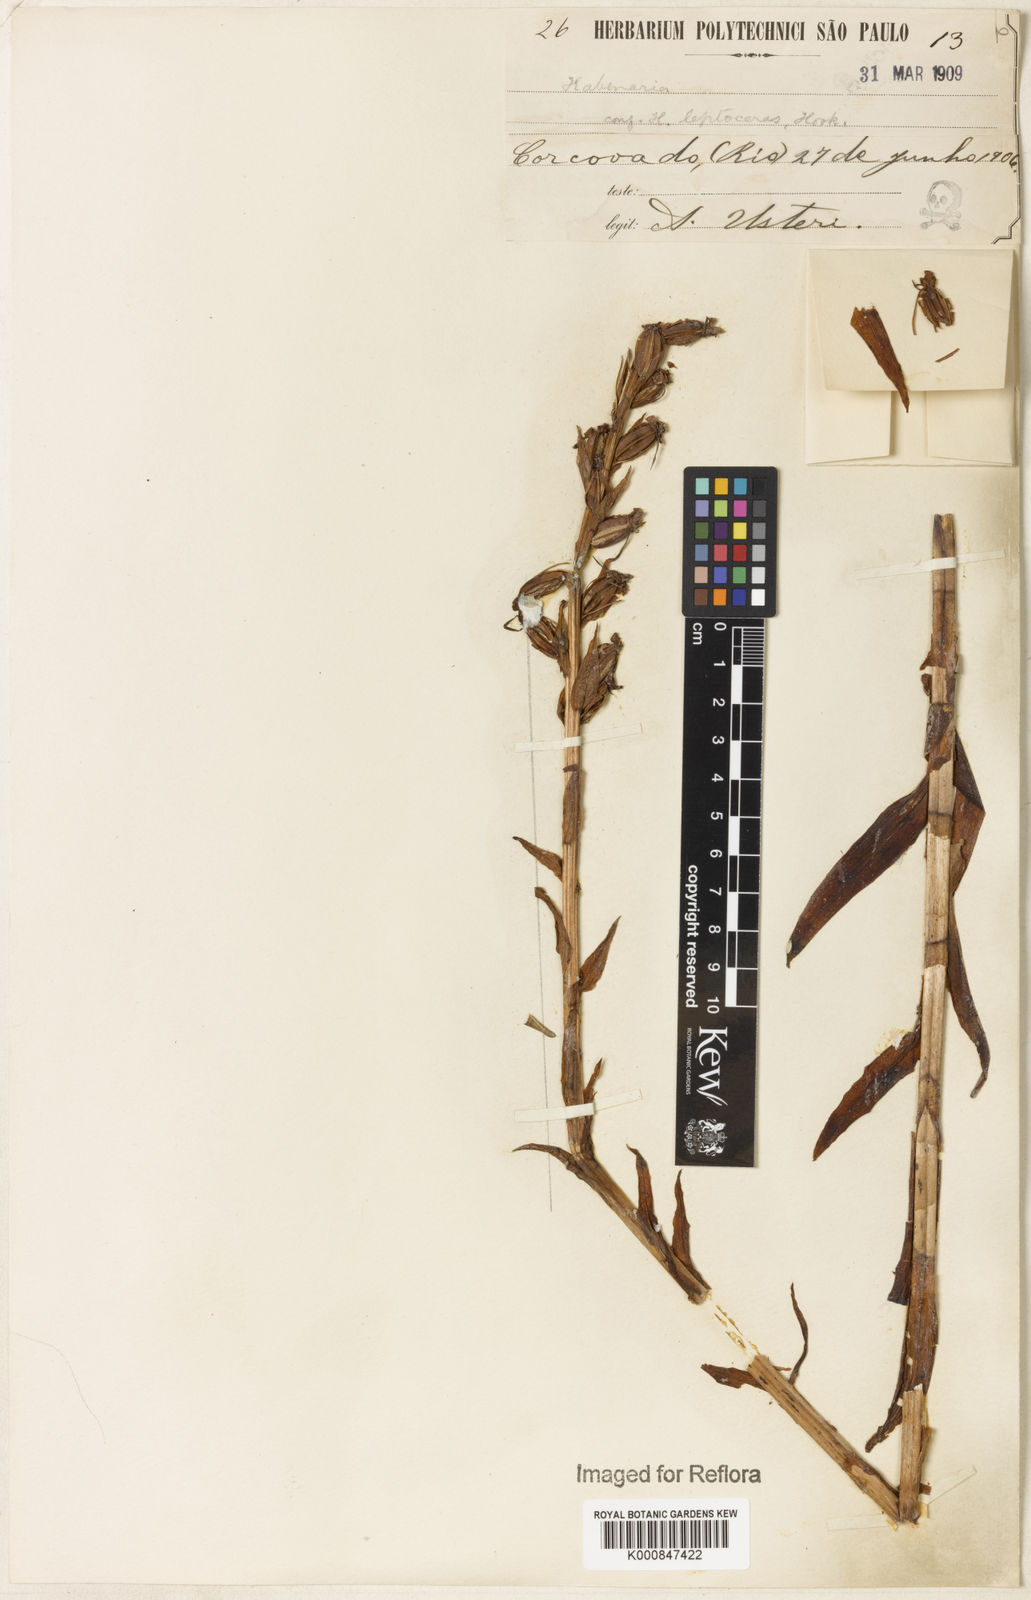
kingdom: Plantae
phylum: Tracheophyta
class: Liliopsida
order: Asparagales
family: Orchidaceae
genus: Habenaria
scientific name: Habenaria leptoceras
